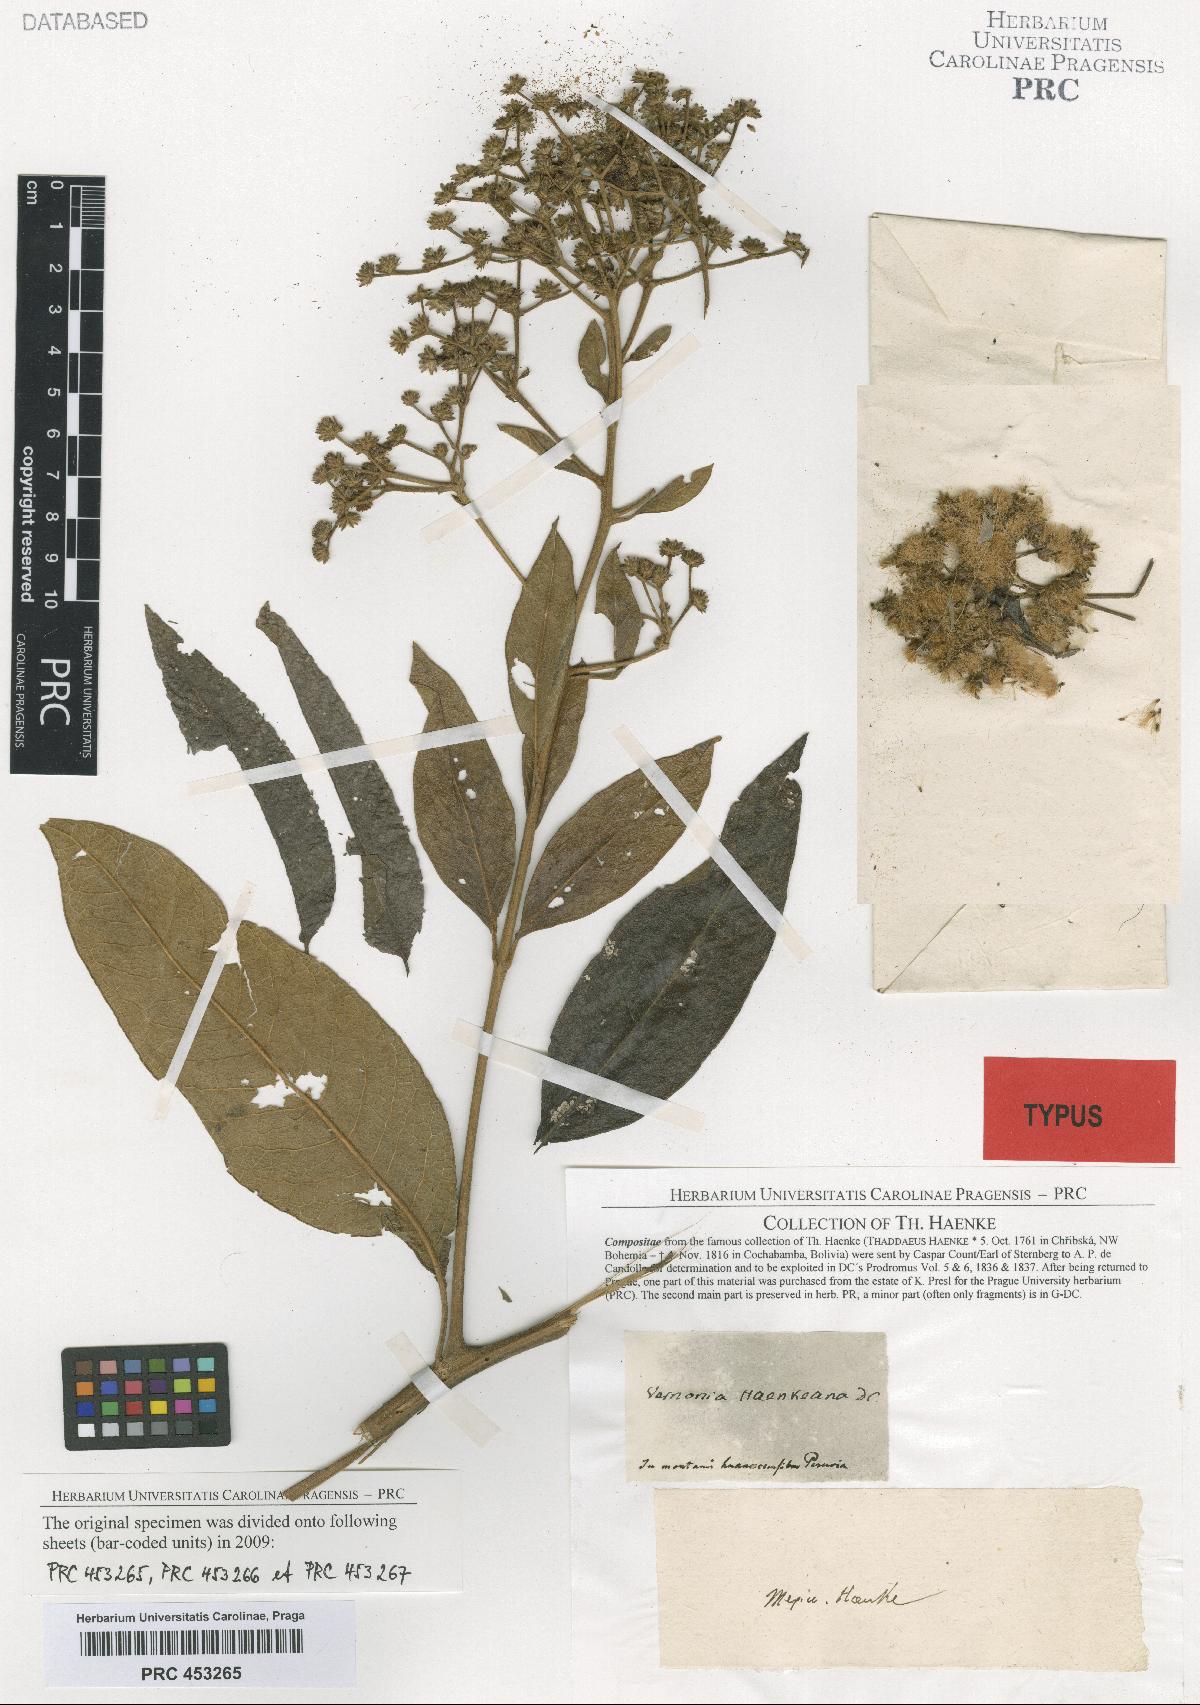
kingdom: Plantae
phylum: Tracheophyta
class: Magnoliopsida
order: Asterales
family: Asteraceae
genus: Vernonanthura
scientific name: Vernonanthura patens
